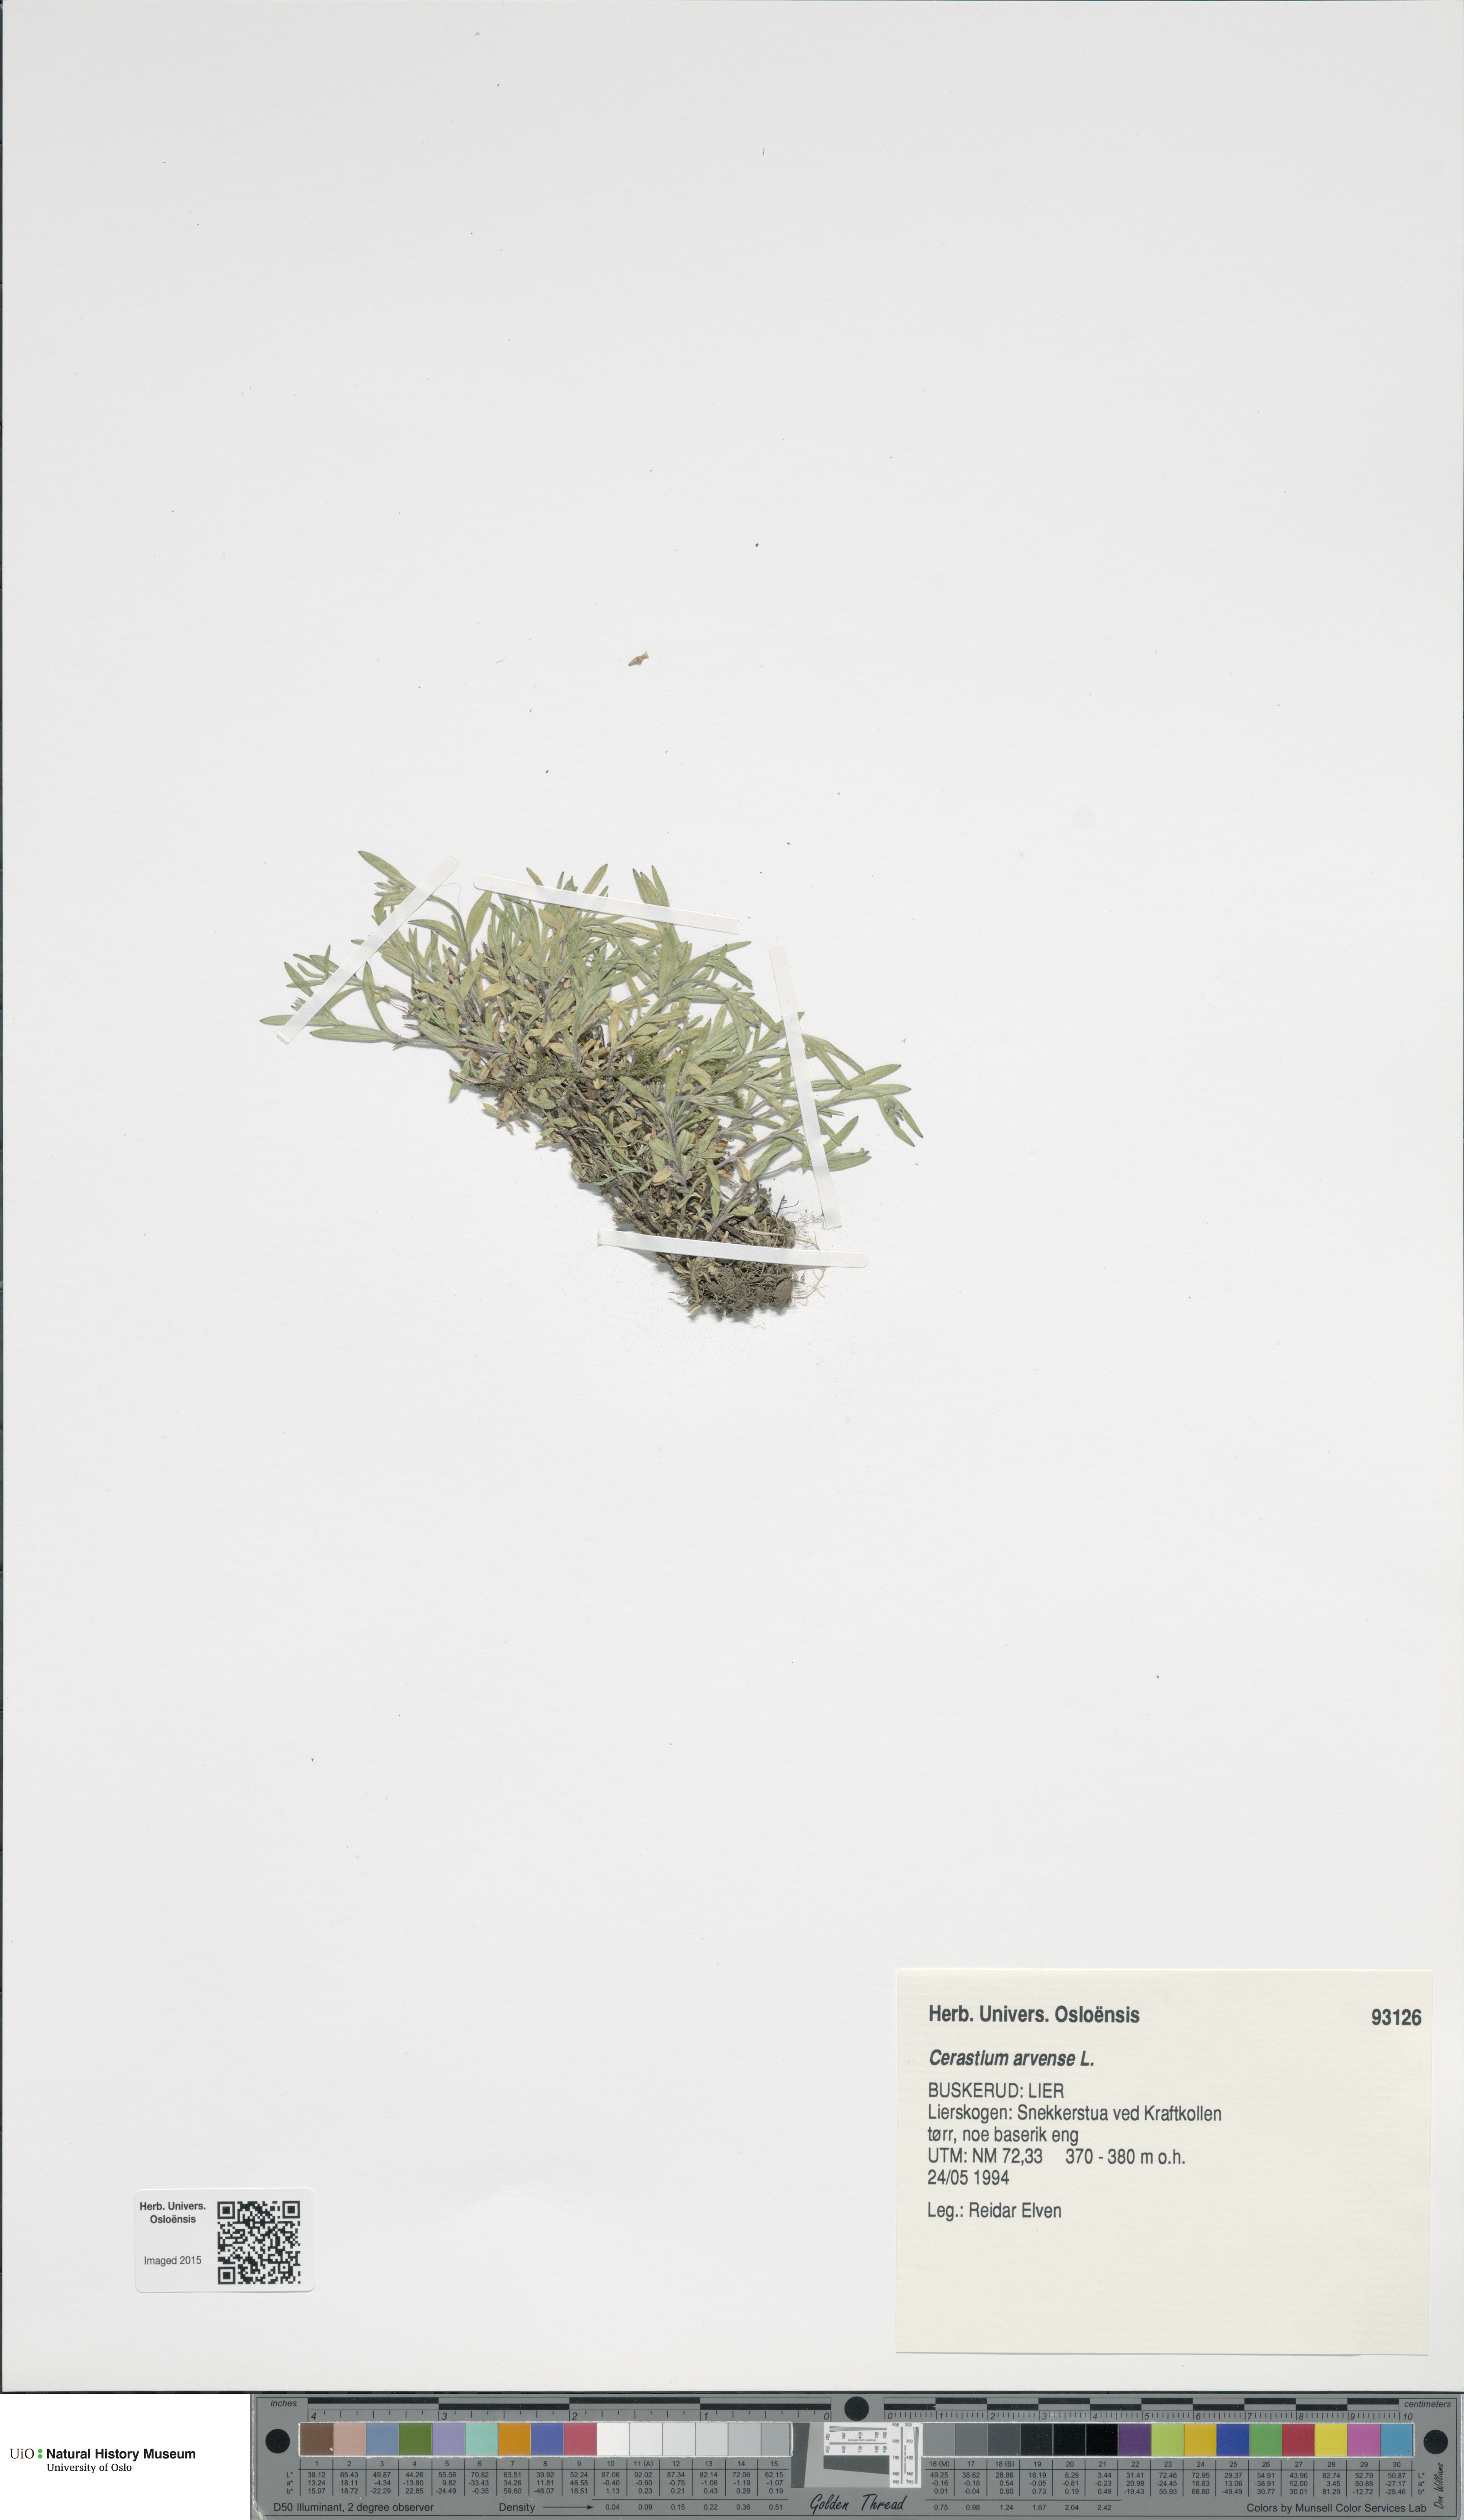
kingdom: Plantae
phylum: Tracheophyta
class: Magnoliopsida
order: Caryophyllales
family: Caryophyllaceae
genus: Cerastium
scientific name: Cerastium arvense
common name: Field mouse-ear
